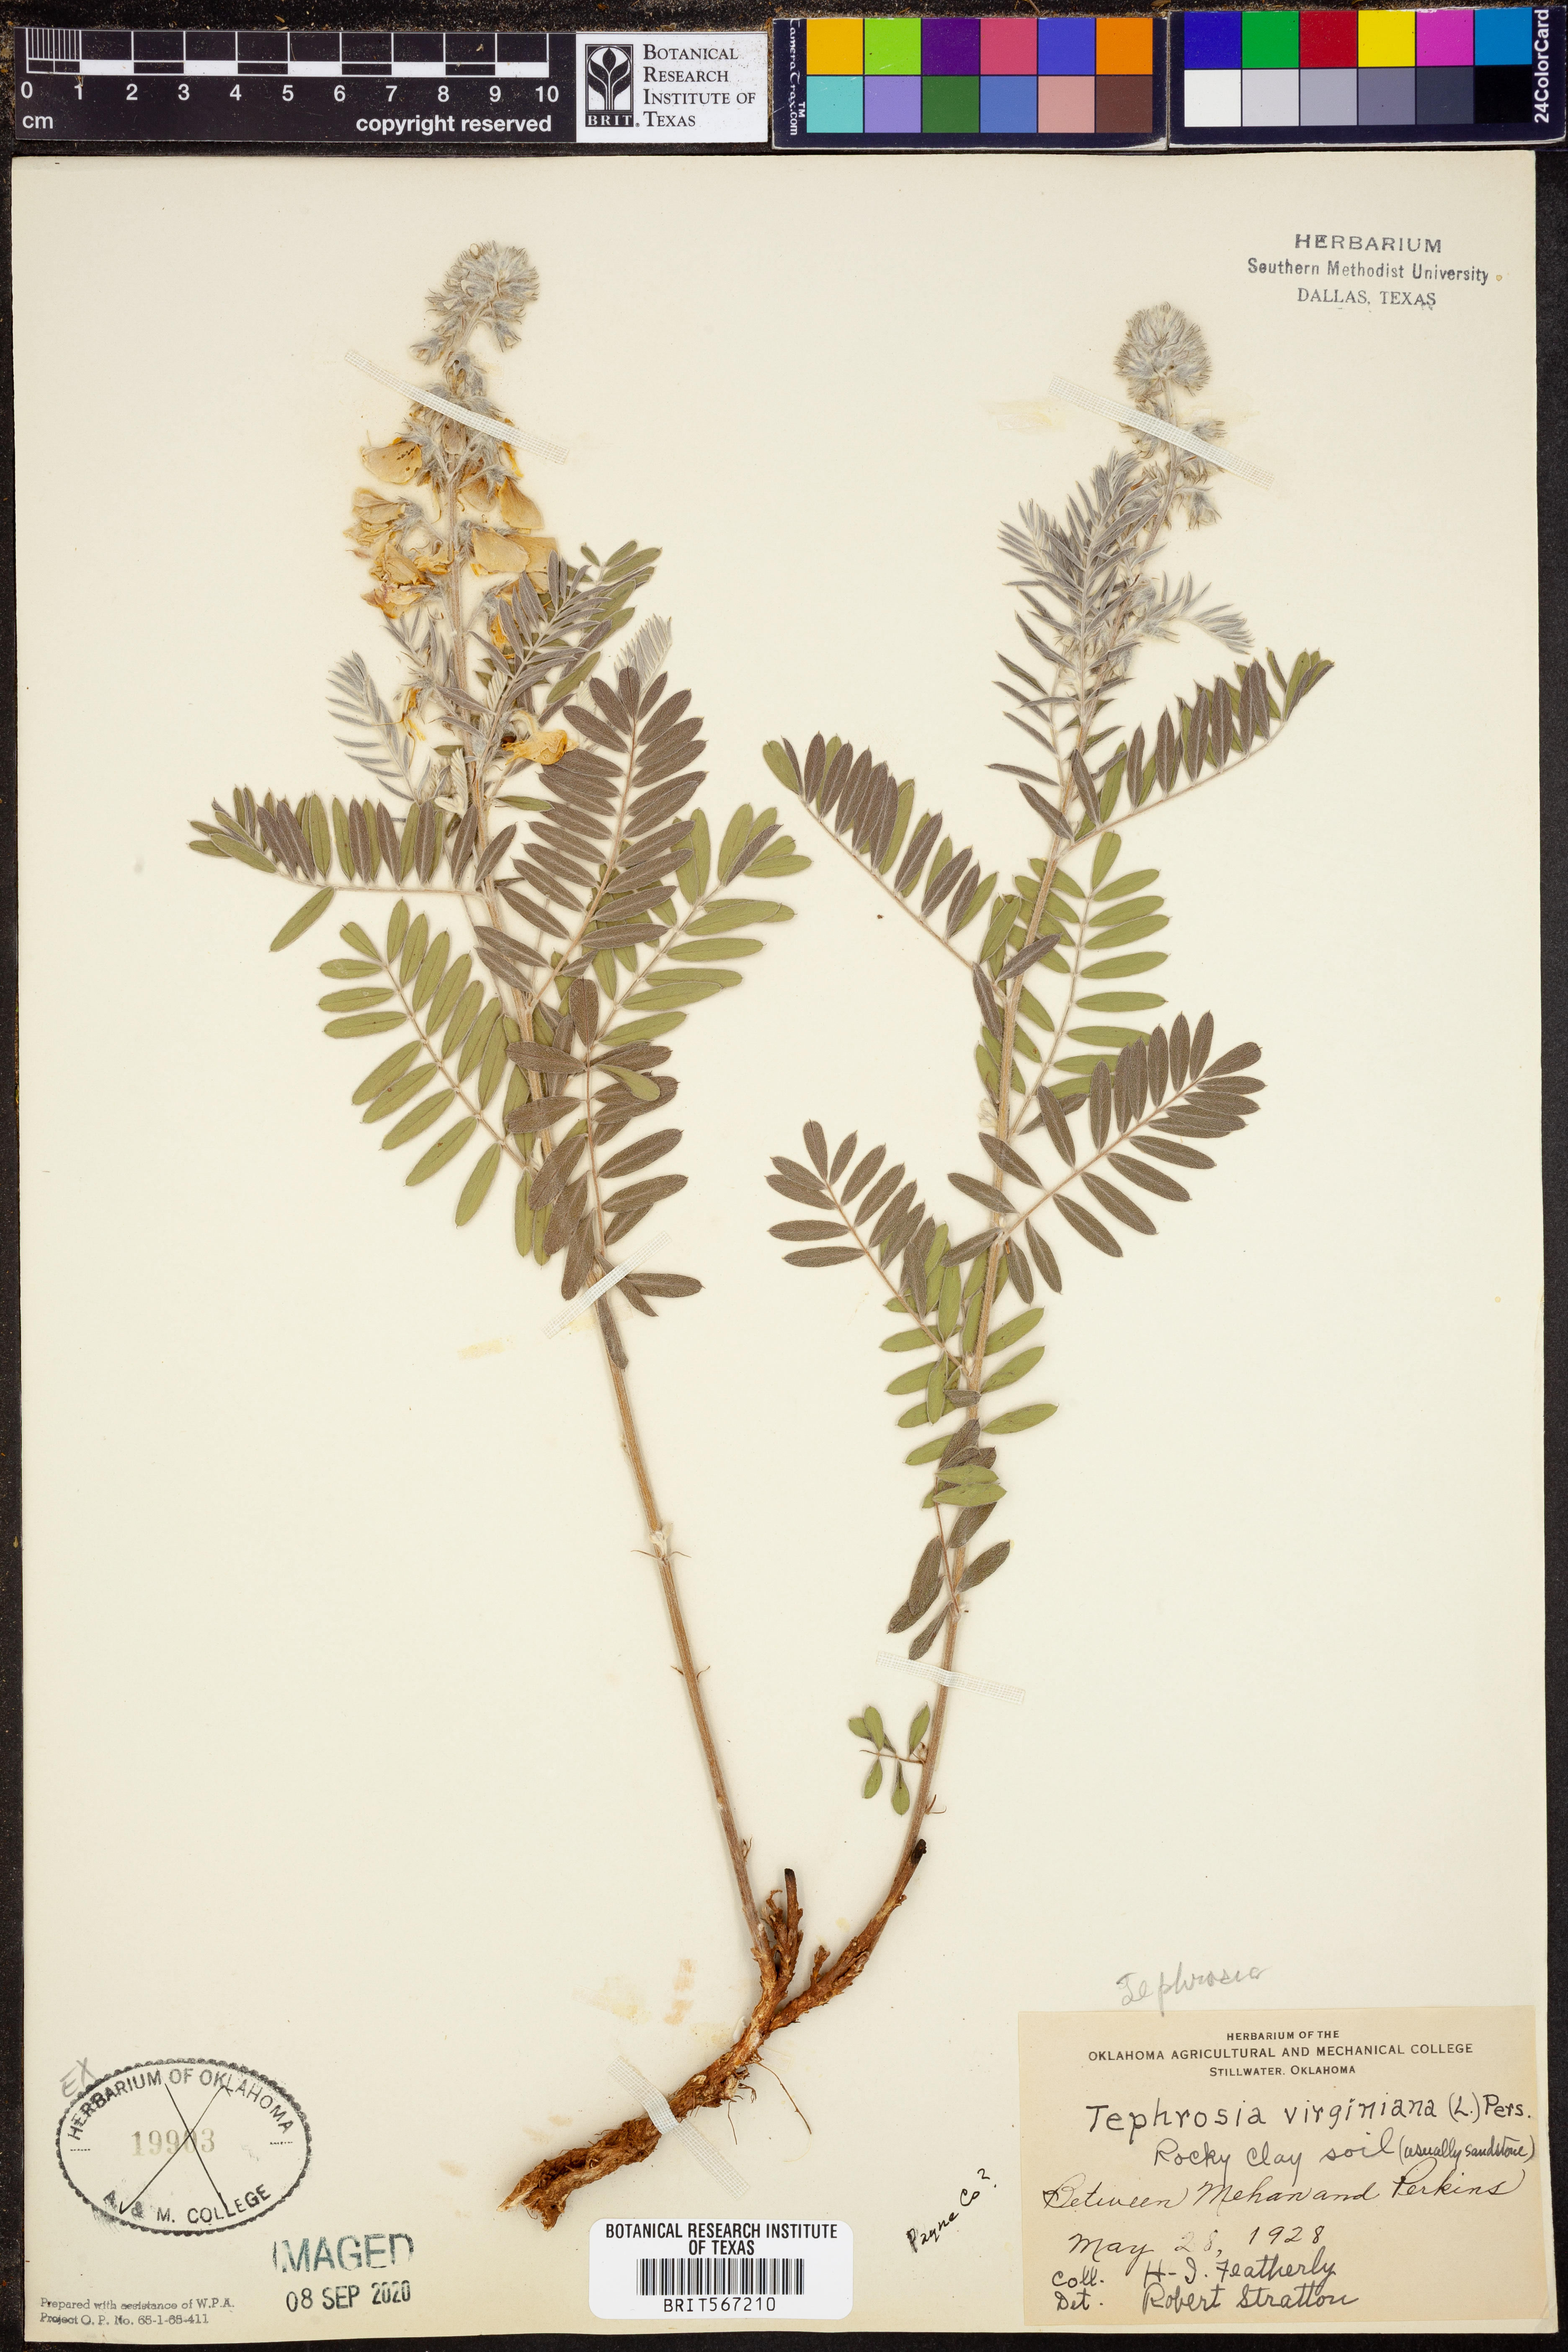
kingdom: Plantae
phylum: Tracheophyta
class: Magnoliopsida
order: Fabales
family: Fabaceae
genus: Tephrosia
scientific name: Tephrosia virginiana
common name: Rabbit-pea
